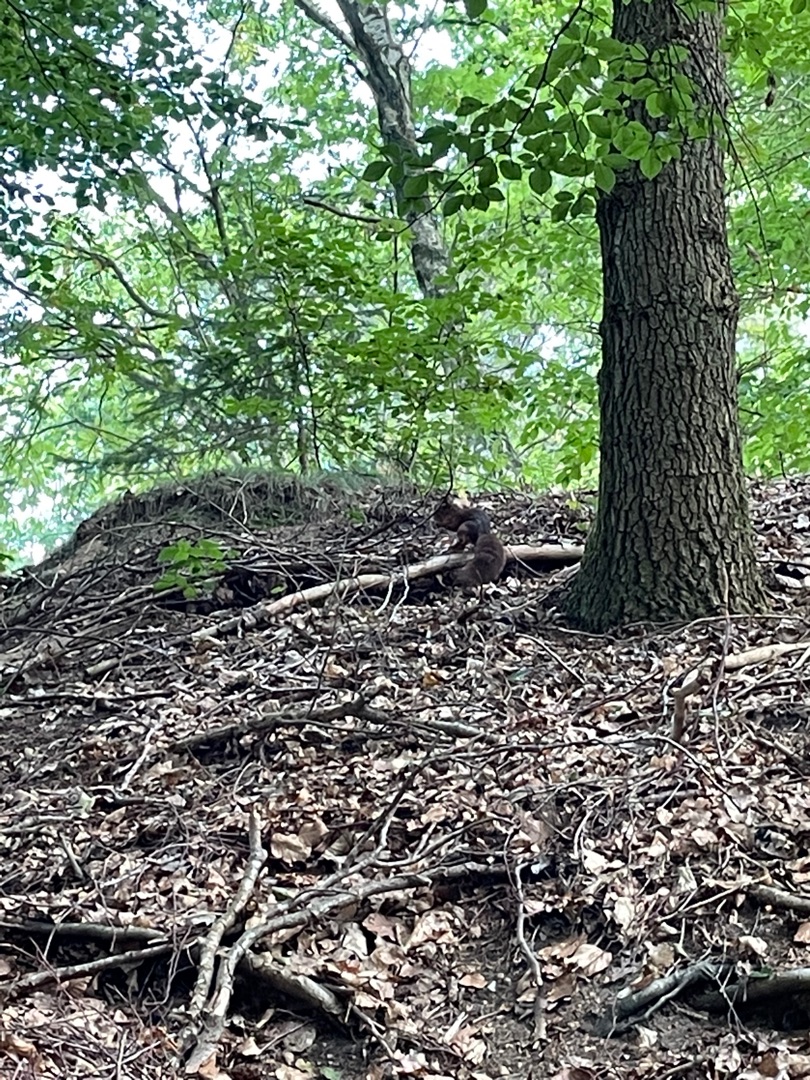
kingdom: Animalia
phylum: Chordata
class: Mammalia
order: Rodentia
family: Sciuridae
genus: Sciurus
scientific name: Sciurus vulgaris
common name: Egern
